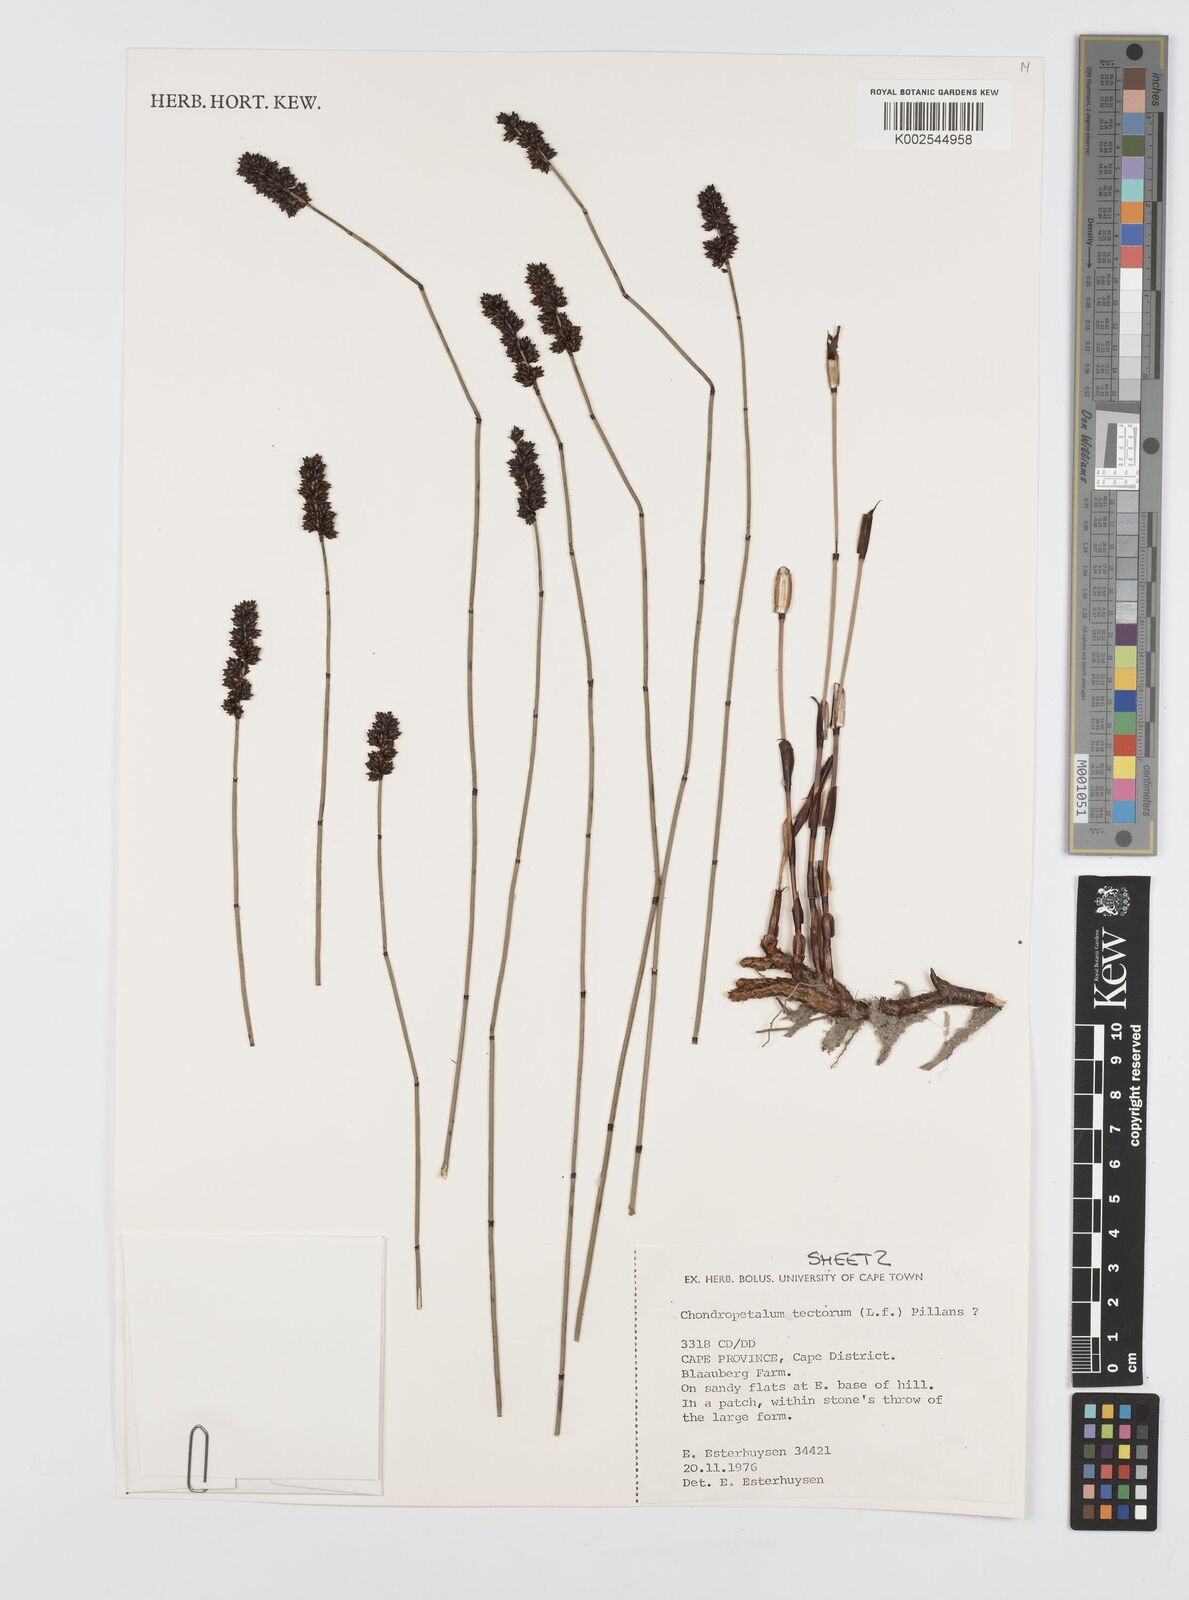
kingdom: Plantae
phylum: Tracheophyta
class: Liliopsida
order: Poales
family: Restionaceae
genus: Elegia
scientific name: Elegia tectorum
